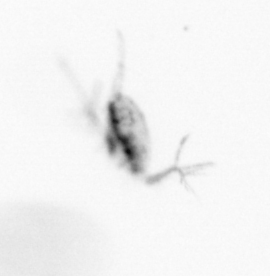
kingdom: Animalia
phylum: Arthropoda
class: Copepoda
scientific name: Copepoda
